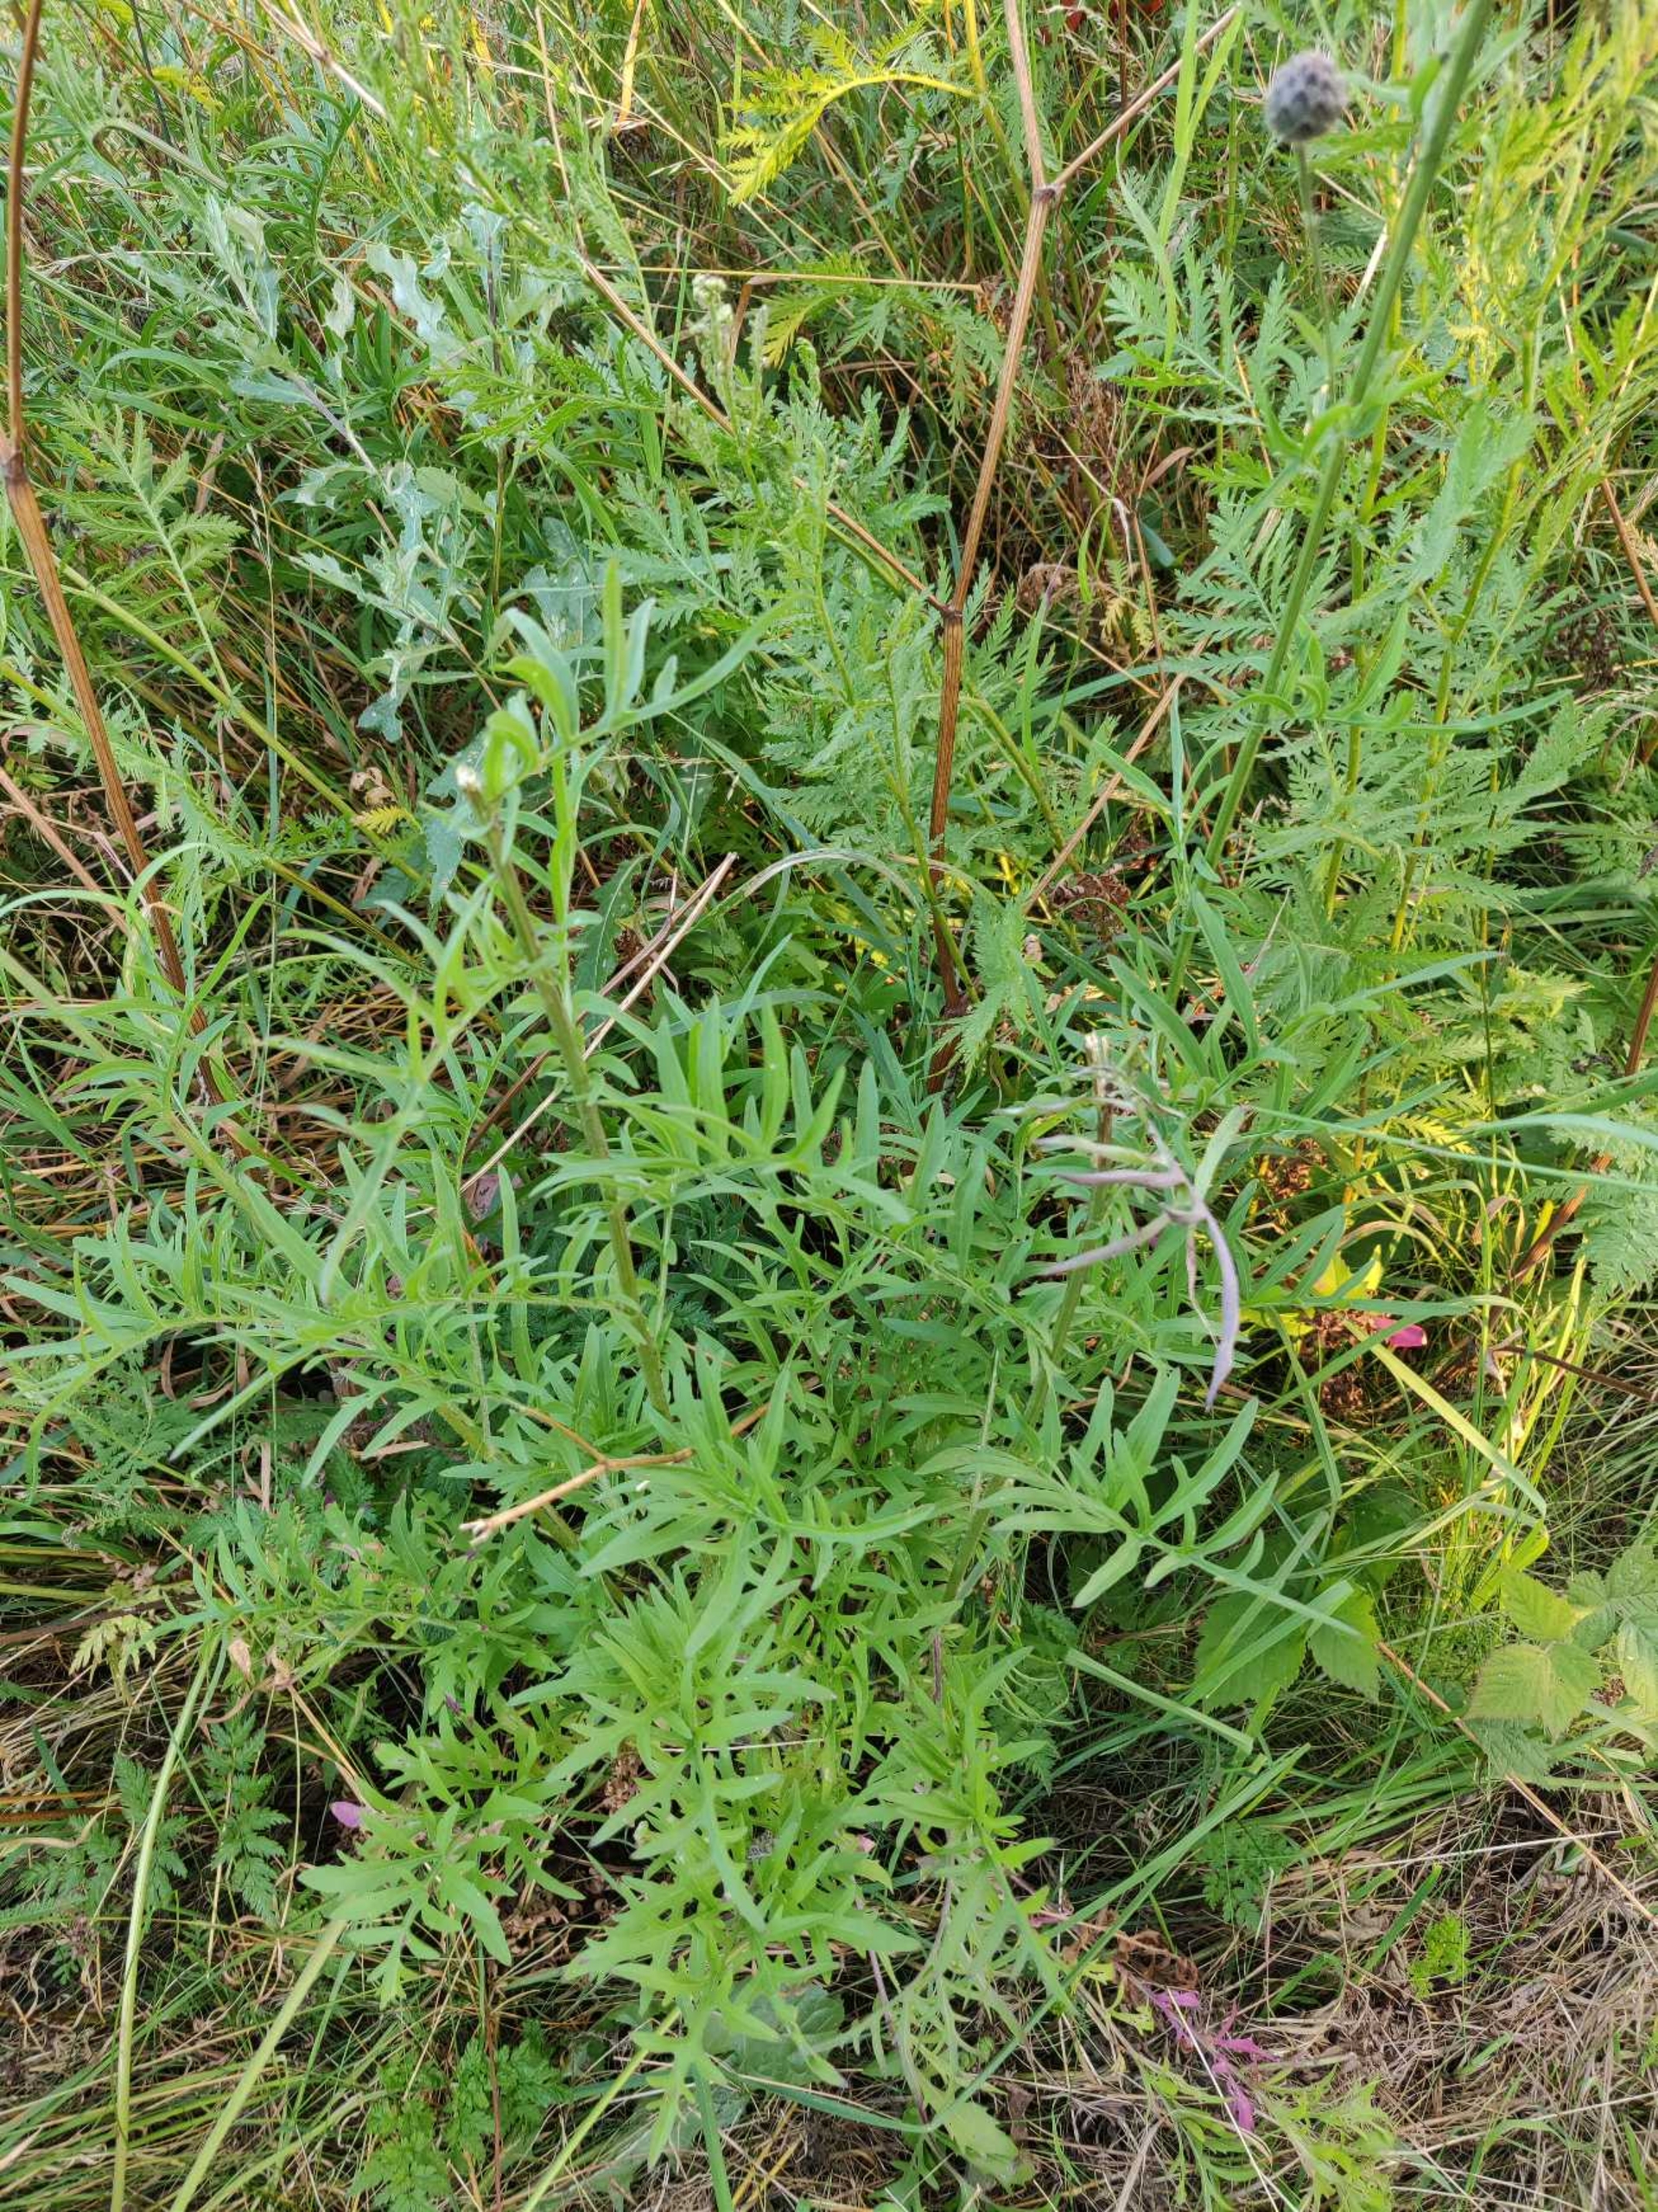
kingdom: Plantae
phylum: Tracheophyta
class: Magnoliopsida
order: Asterales
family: Asteraceae
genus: Centaurea
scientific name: Centaurea scabiosa
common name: Stor knopurt
